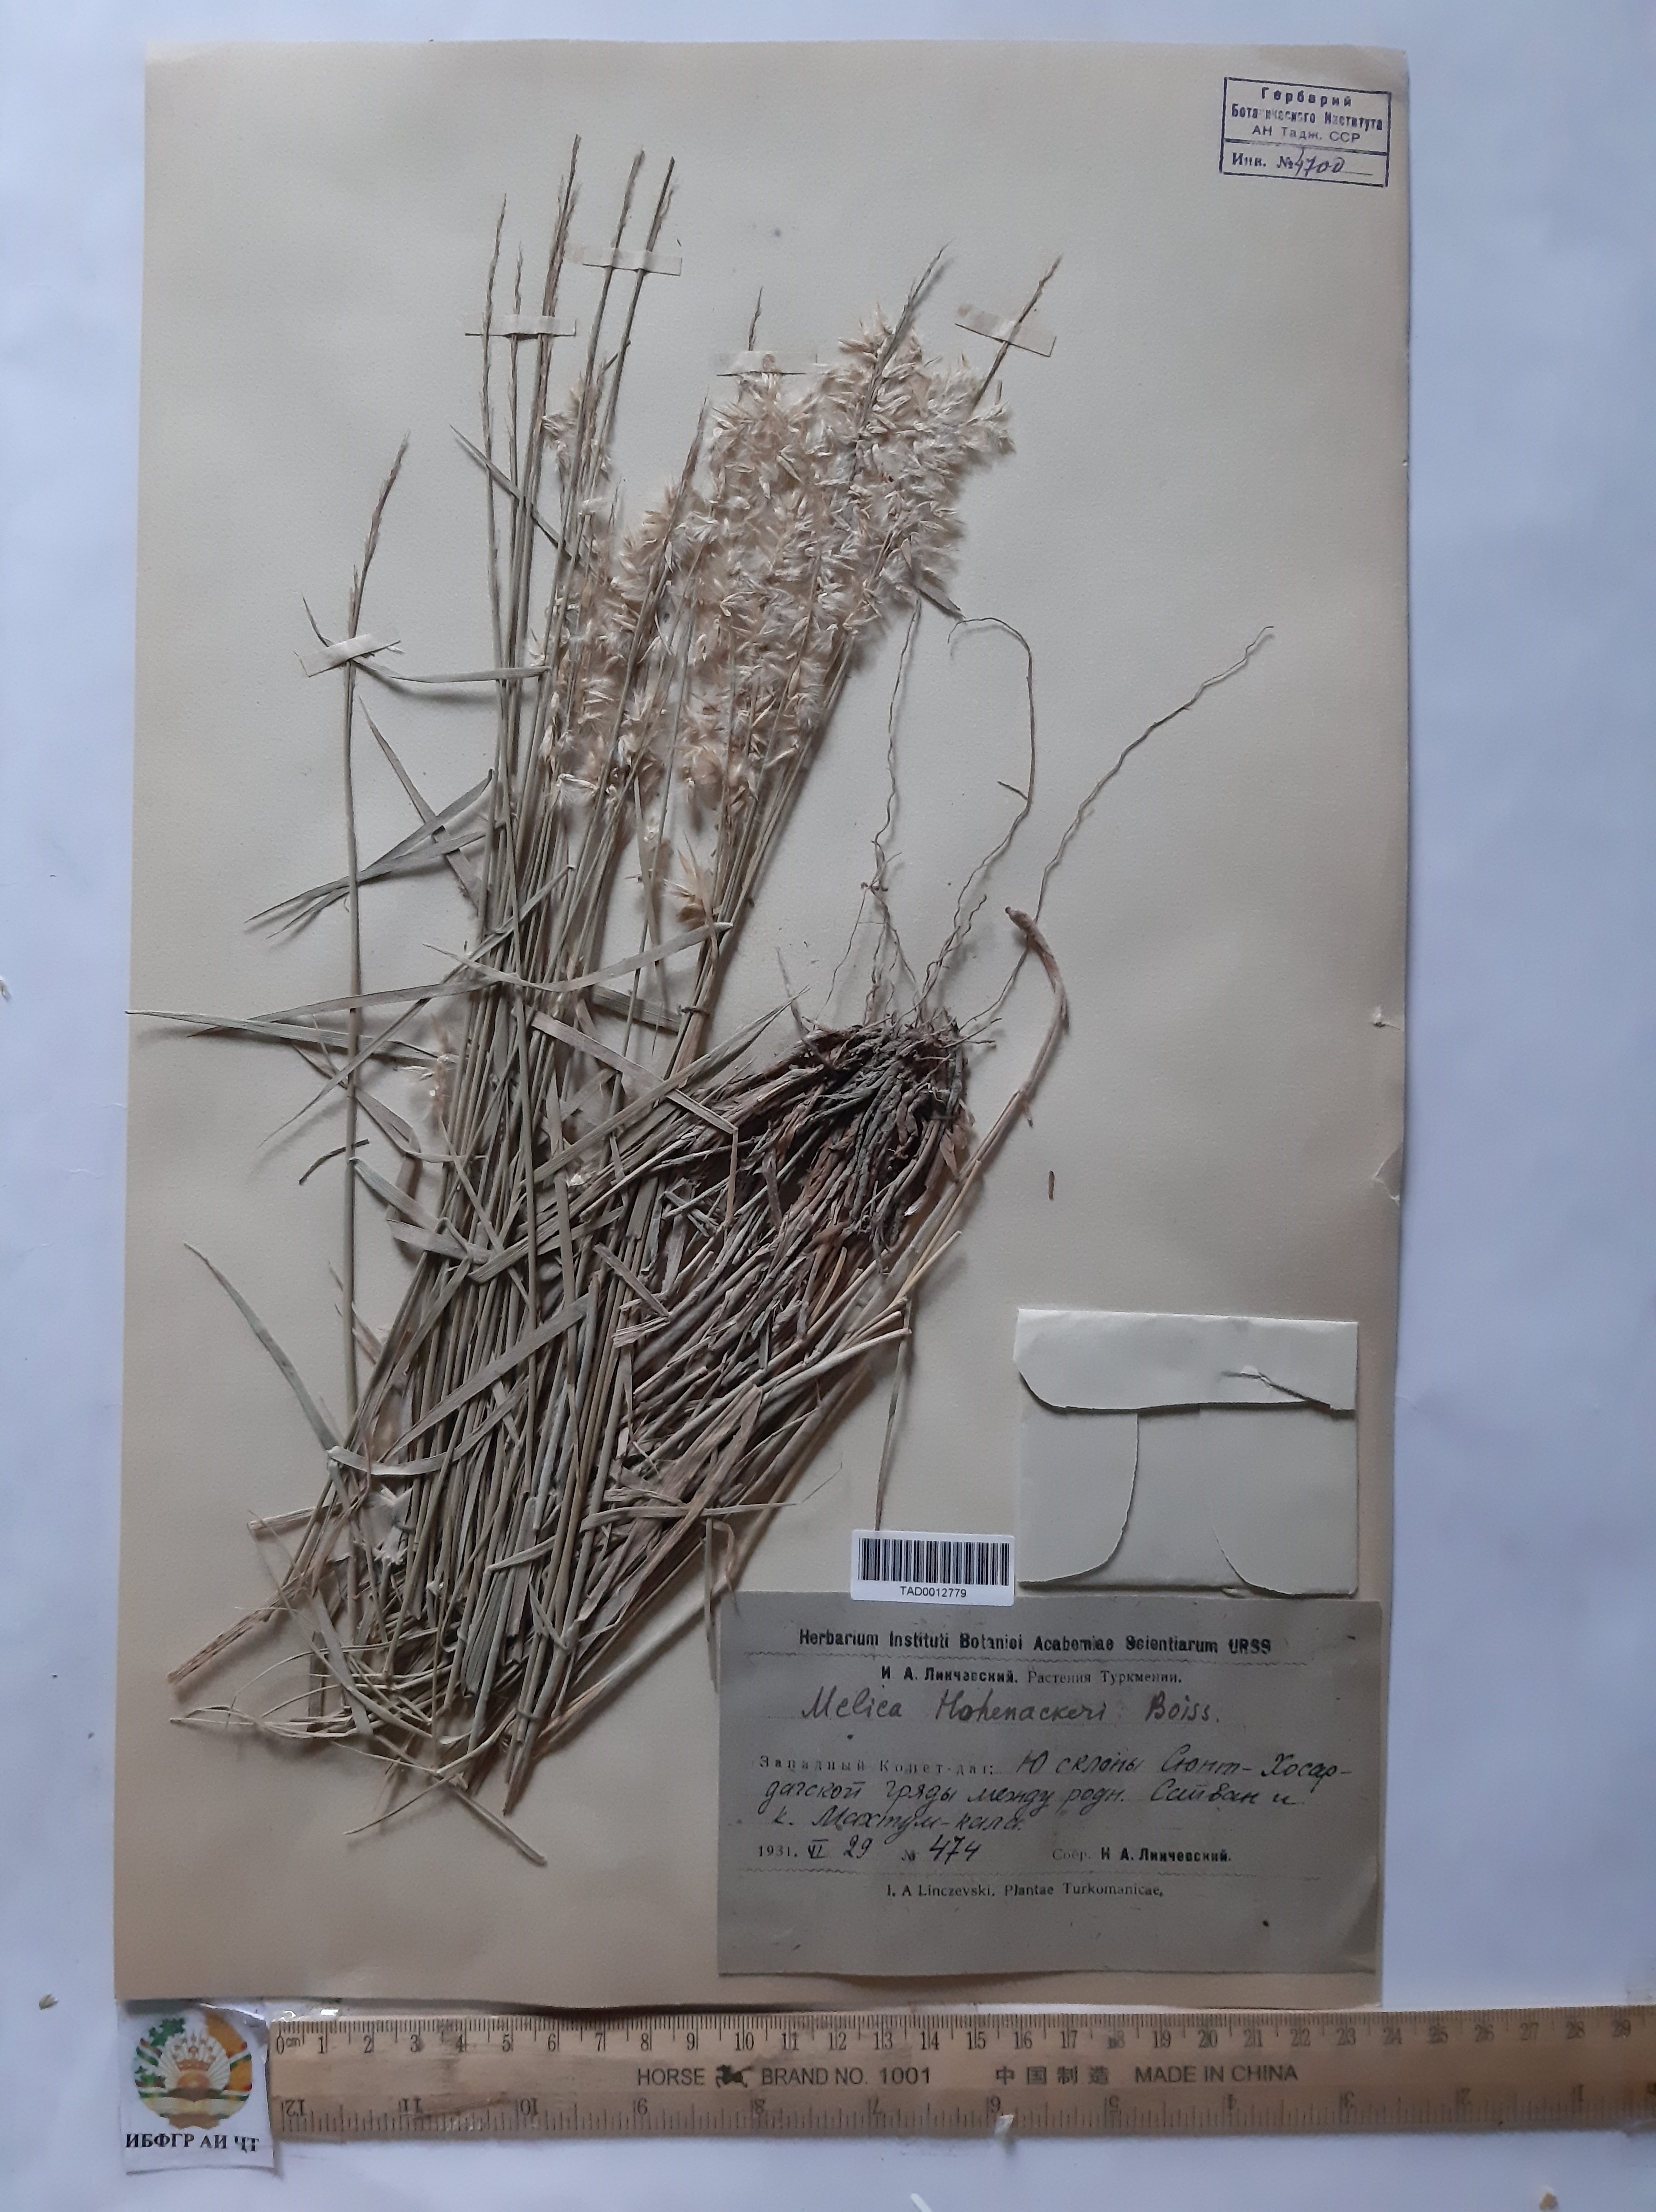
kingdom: Plantae
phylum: Tracheophyta
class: Liliopsida
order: Poales
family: Poaceae
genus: Melica
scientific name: Melica persica
